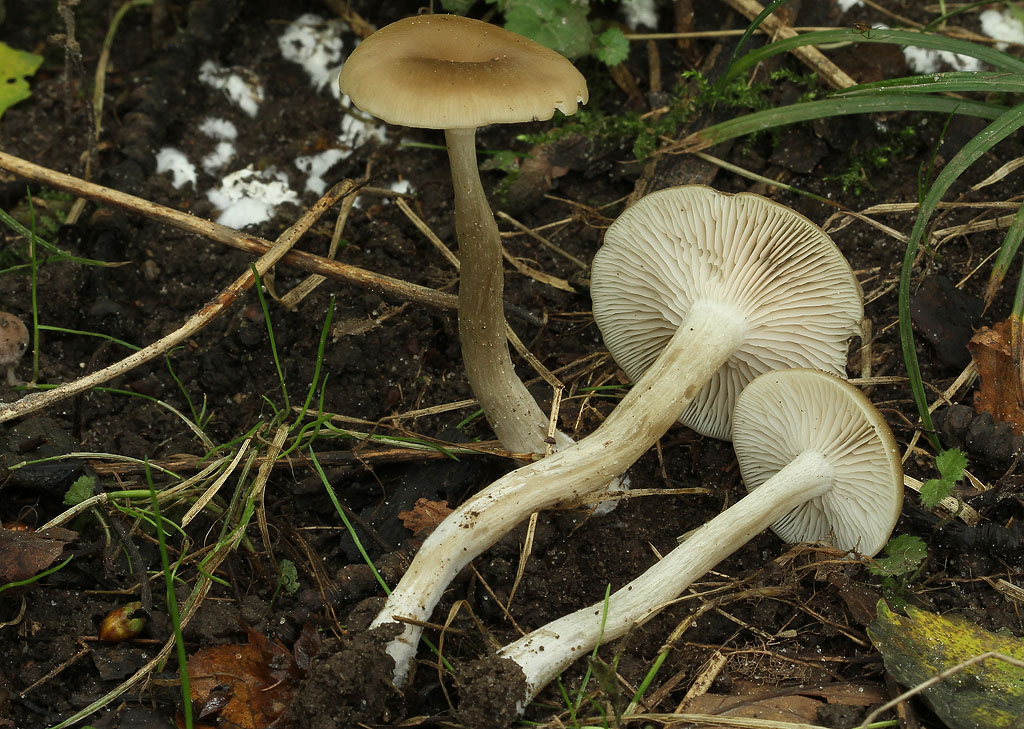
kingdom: Fungi
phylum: Basidiomycota
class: Agaricomycetes
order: Agaricales
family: Entolomataceae
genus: Entoloma
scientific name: Entoloma sericatum
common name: rank rødblad
